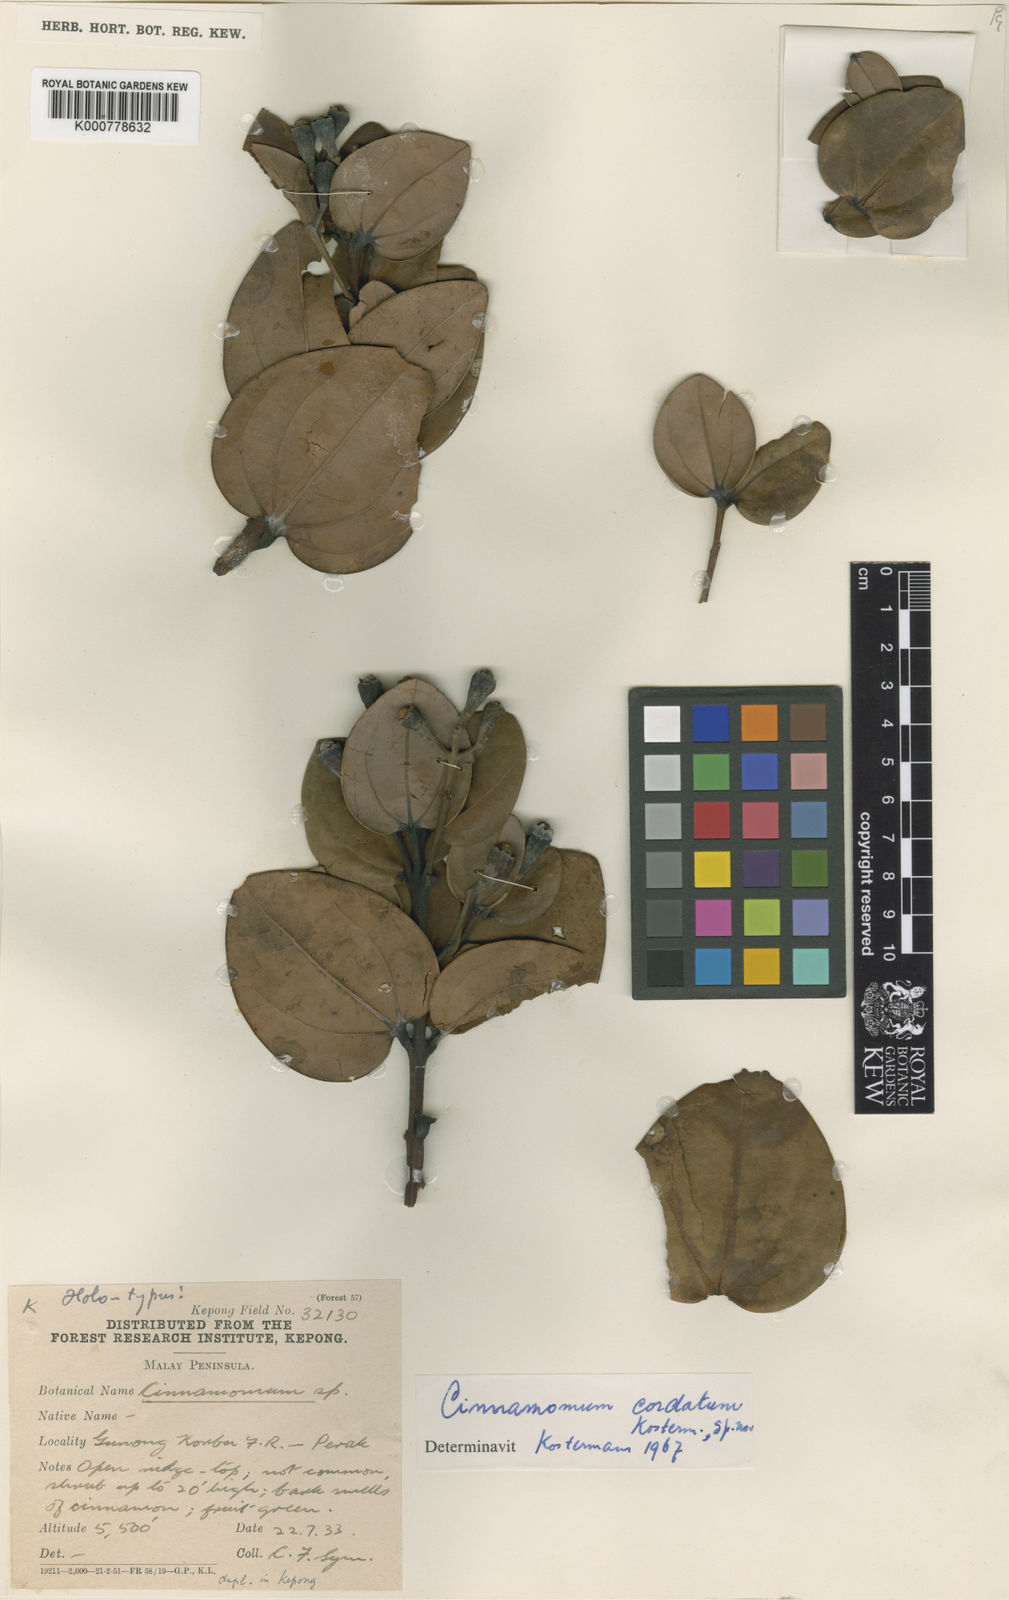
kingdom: Plantae
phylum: Tracheophyta
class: Magnoliopsida
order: Laurales
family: Lauraceae
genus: Cinnamomum
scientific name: Cinnamomum sintoc
